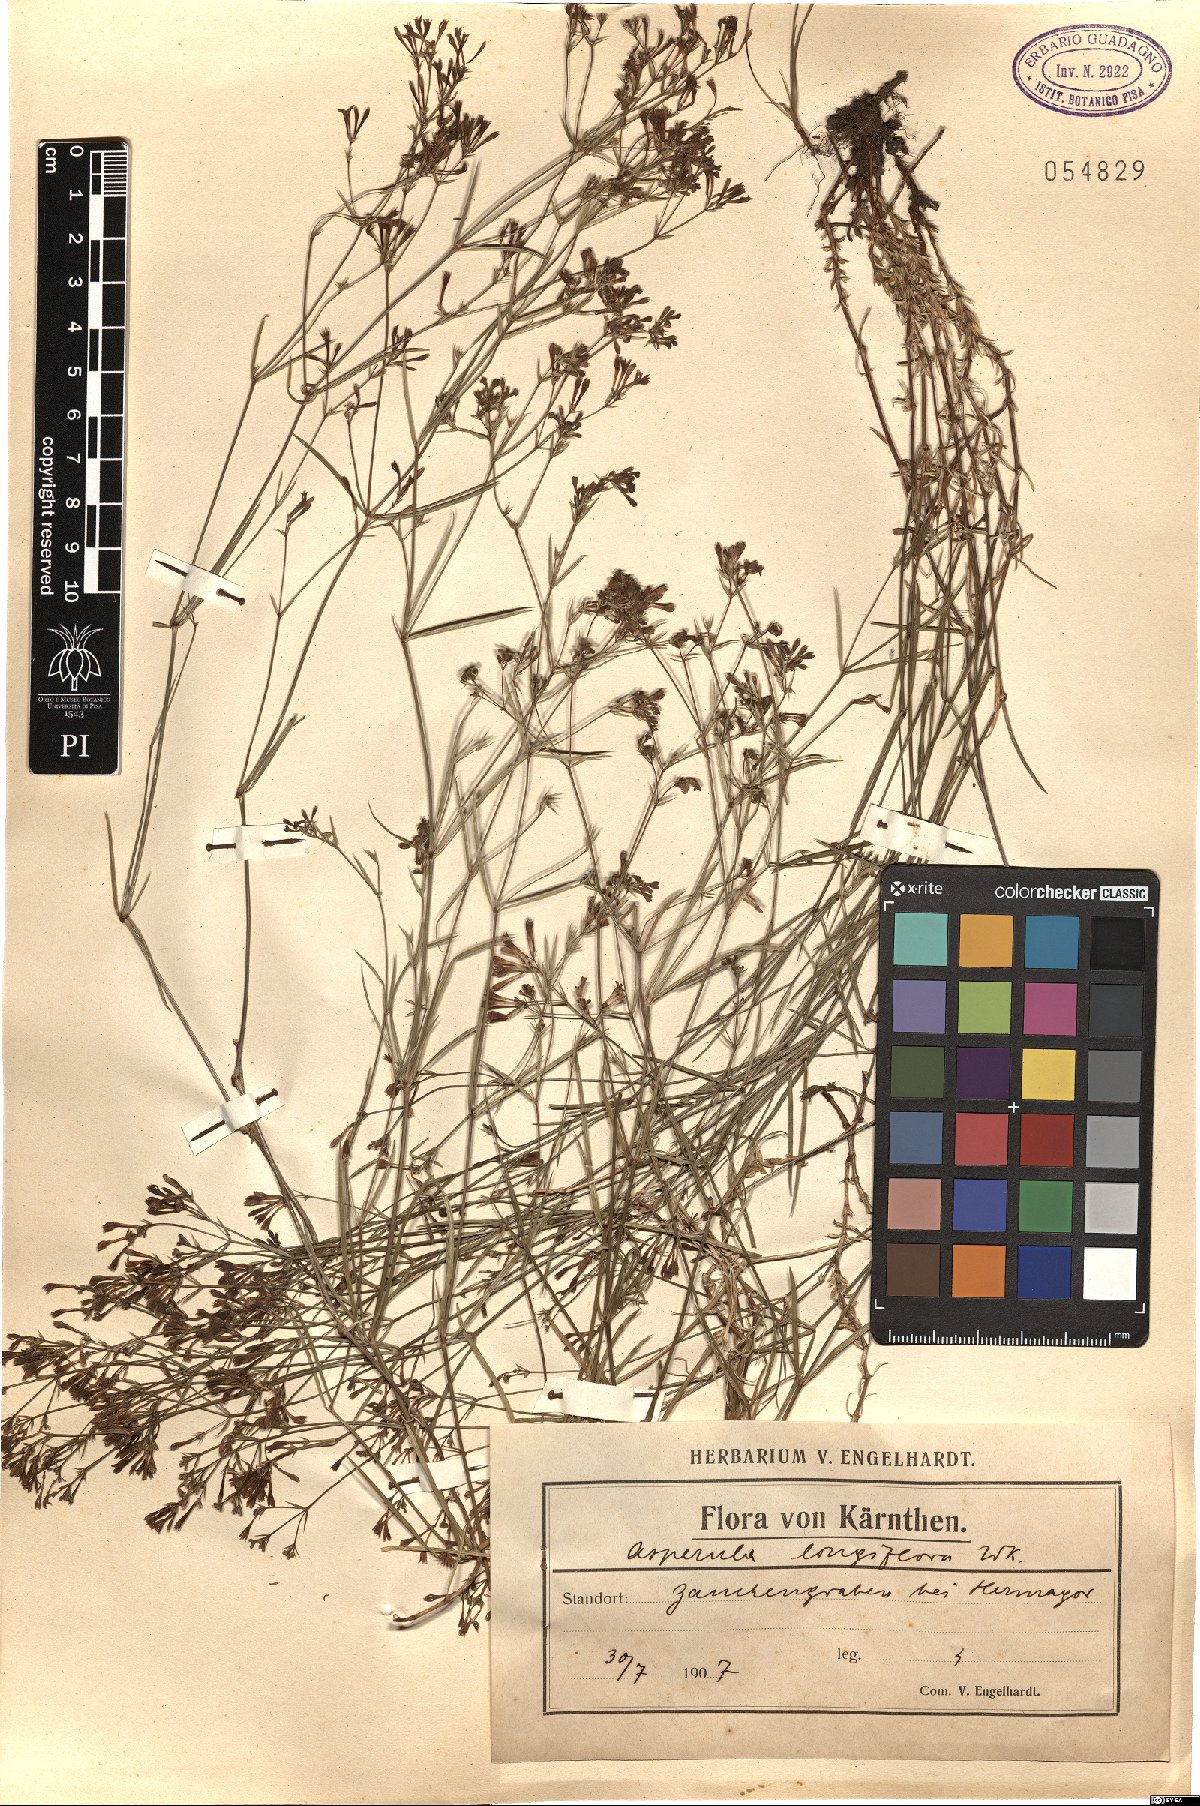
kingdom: Plantae
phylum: Tracheophyta
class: Magnoliopsida
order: Gentianales
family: Rubiaceae
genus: Cynanchica
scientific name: Cynanchica aristata
